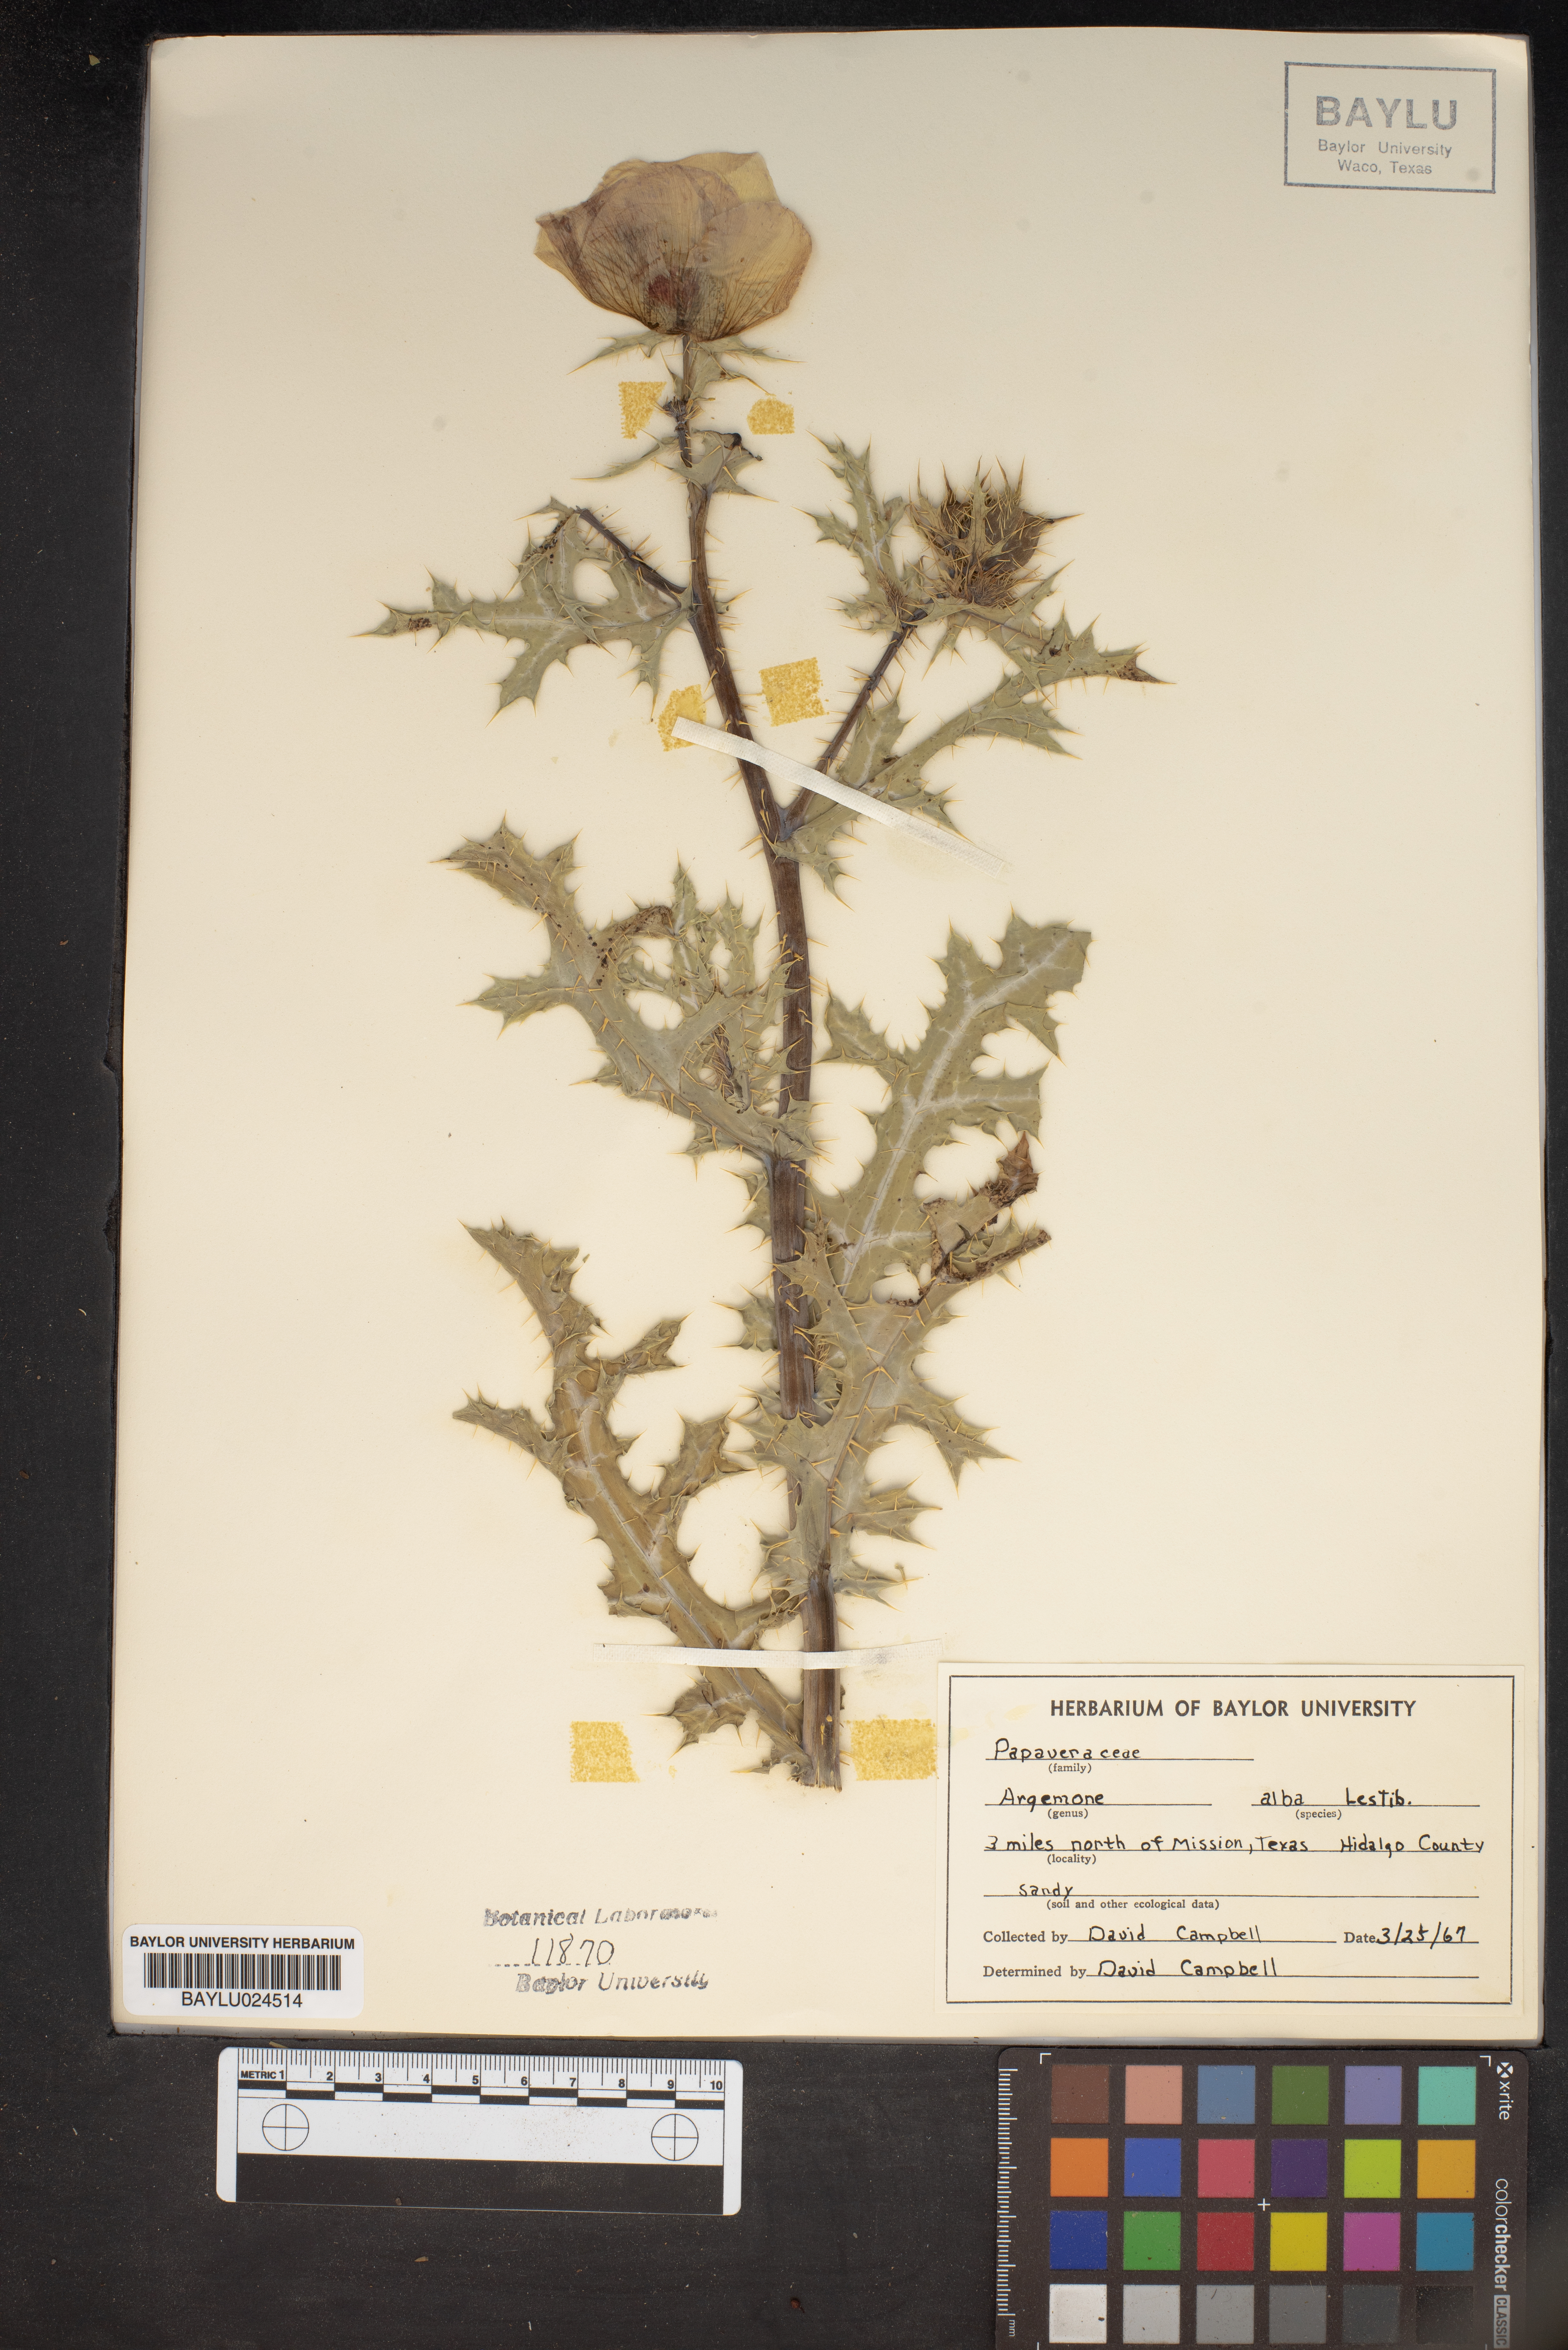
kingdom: Plantae
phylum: Tracheophyta
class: Magnoliopsida
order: Ranunculales
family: Papaveraceae
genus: Argemone
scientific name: Argemone albiflora
